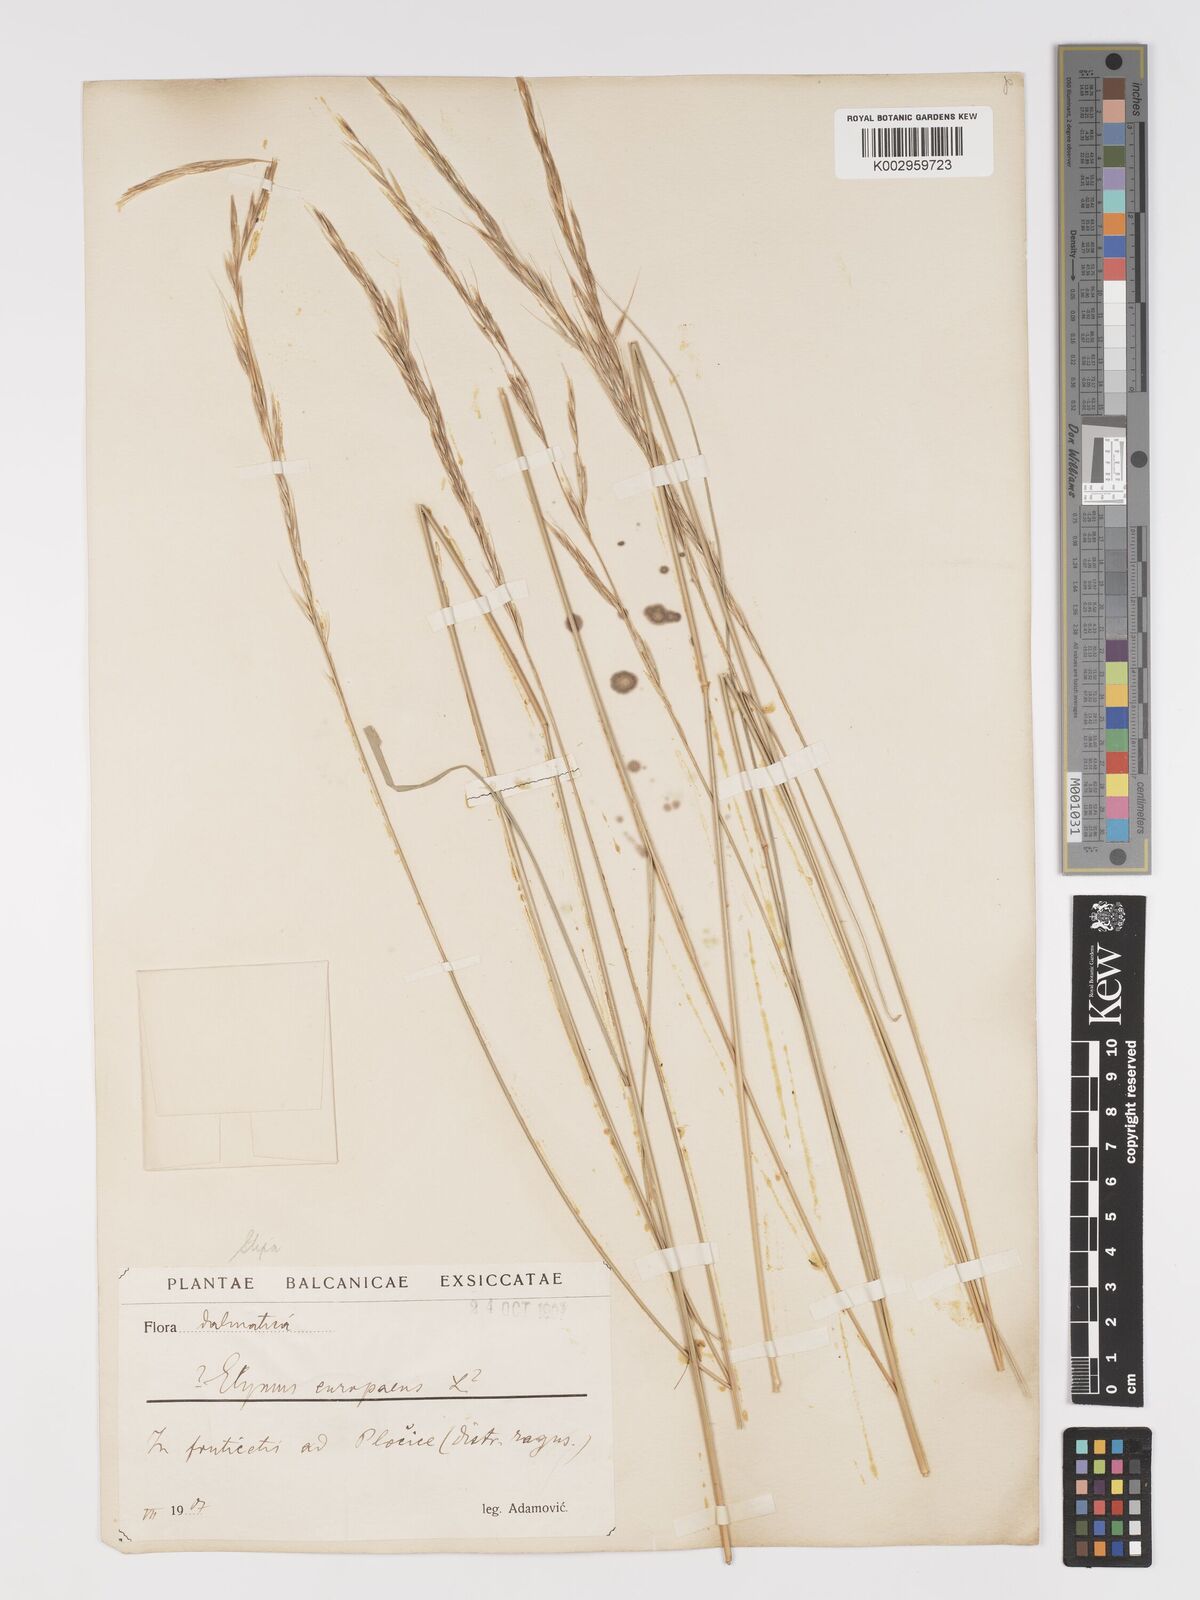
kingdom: Plantae
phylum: Tracheophyta
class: Liliopsida
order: Poales
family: Poaceae
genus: Achnatherum
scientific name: Achnatherum bromoides
